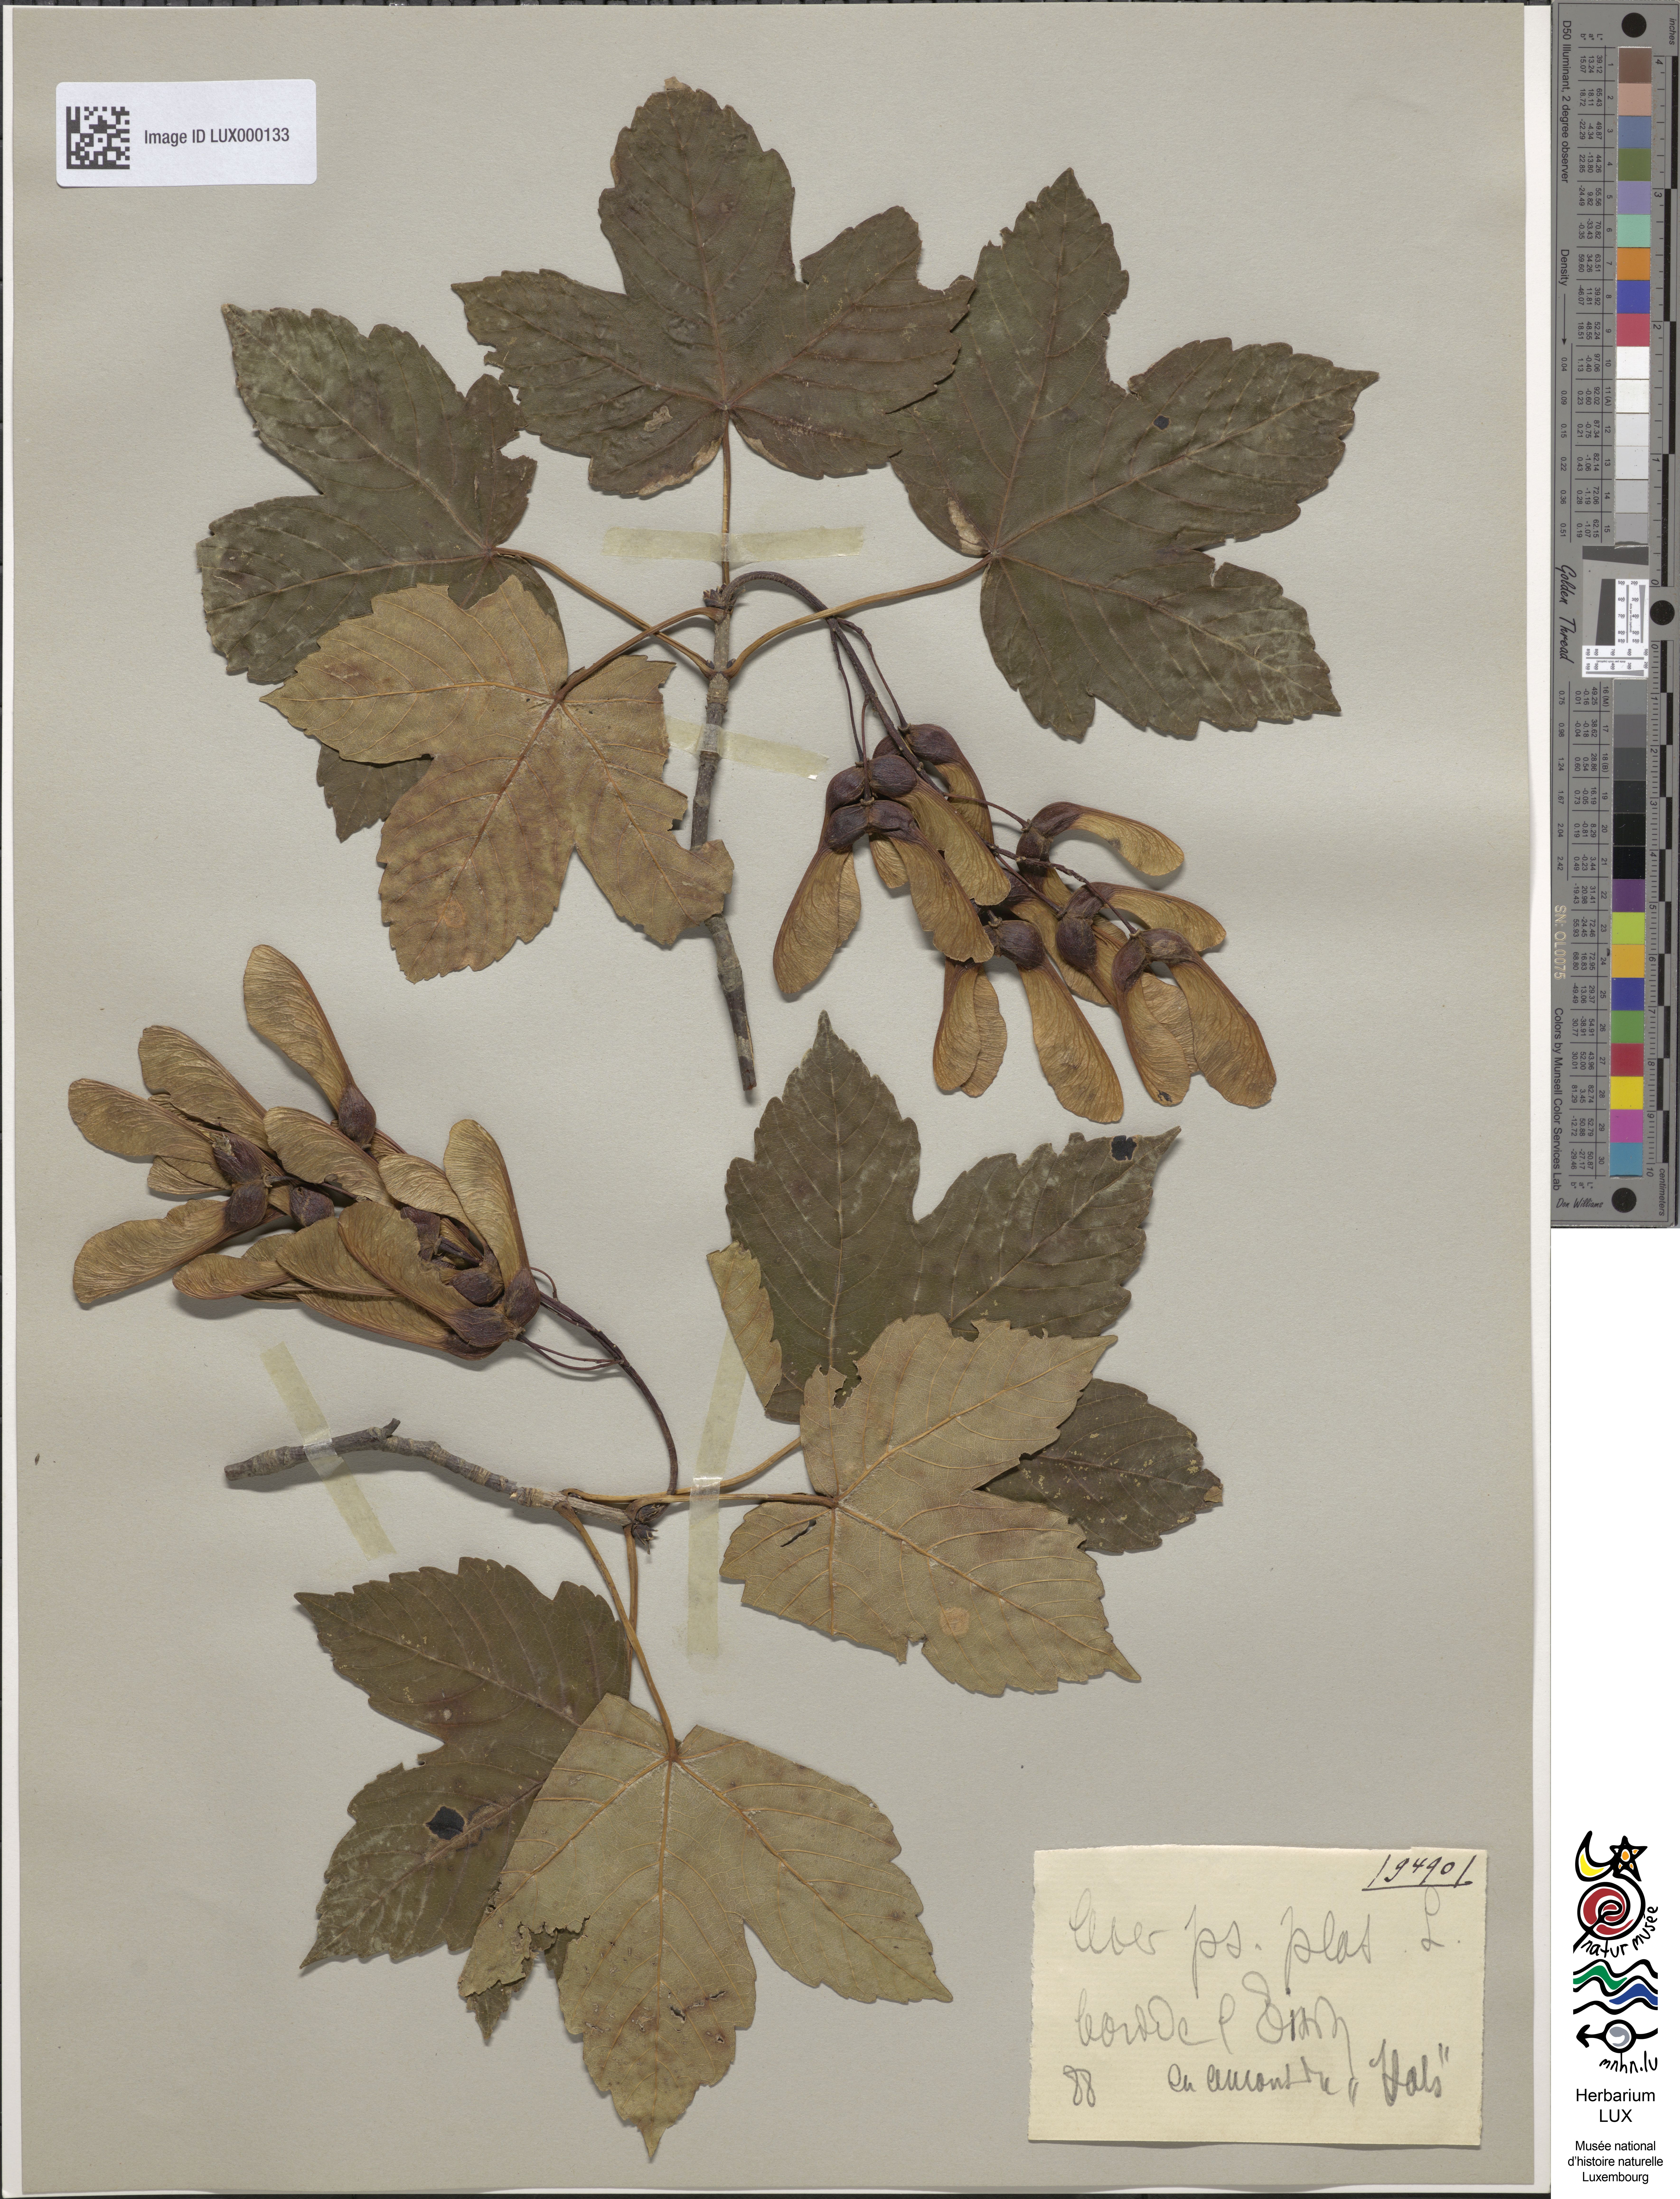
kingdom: Plantae
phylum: Tracheophyta
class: Magnoliopsida
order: Sapindales
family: Sapindaceae
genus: Acer
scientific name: Acer pseudoplatanus
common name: Sycamore
